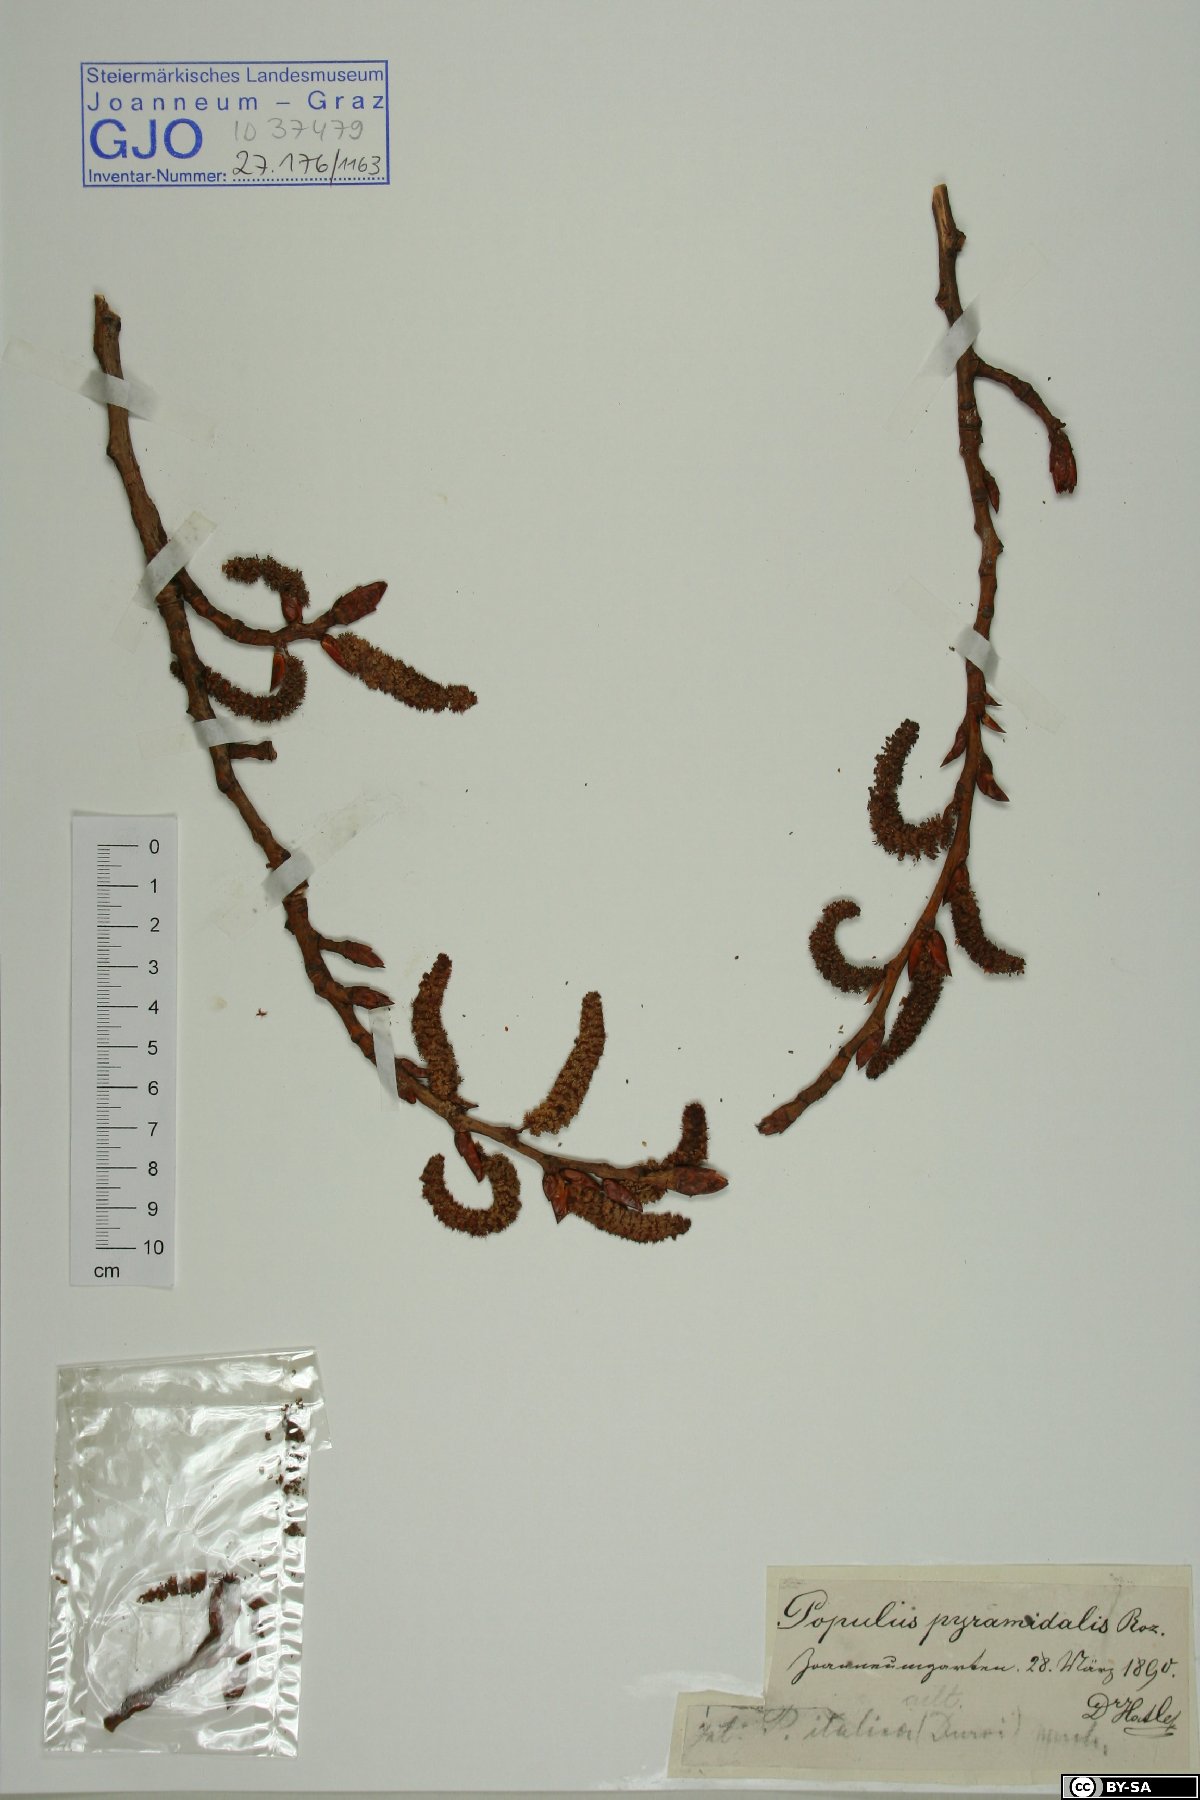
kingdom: Plantae
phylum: Tracheophyta
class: Magnoliopsida
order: Malpighiales
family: Salicaceae
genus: Populus
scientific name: Populus nigra
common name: Black poplar
